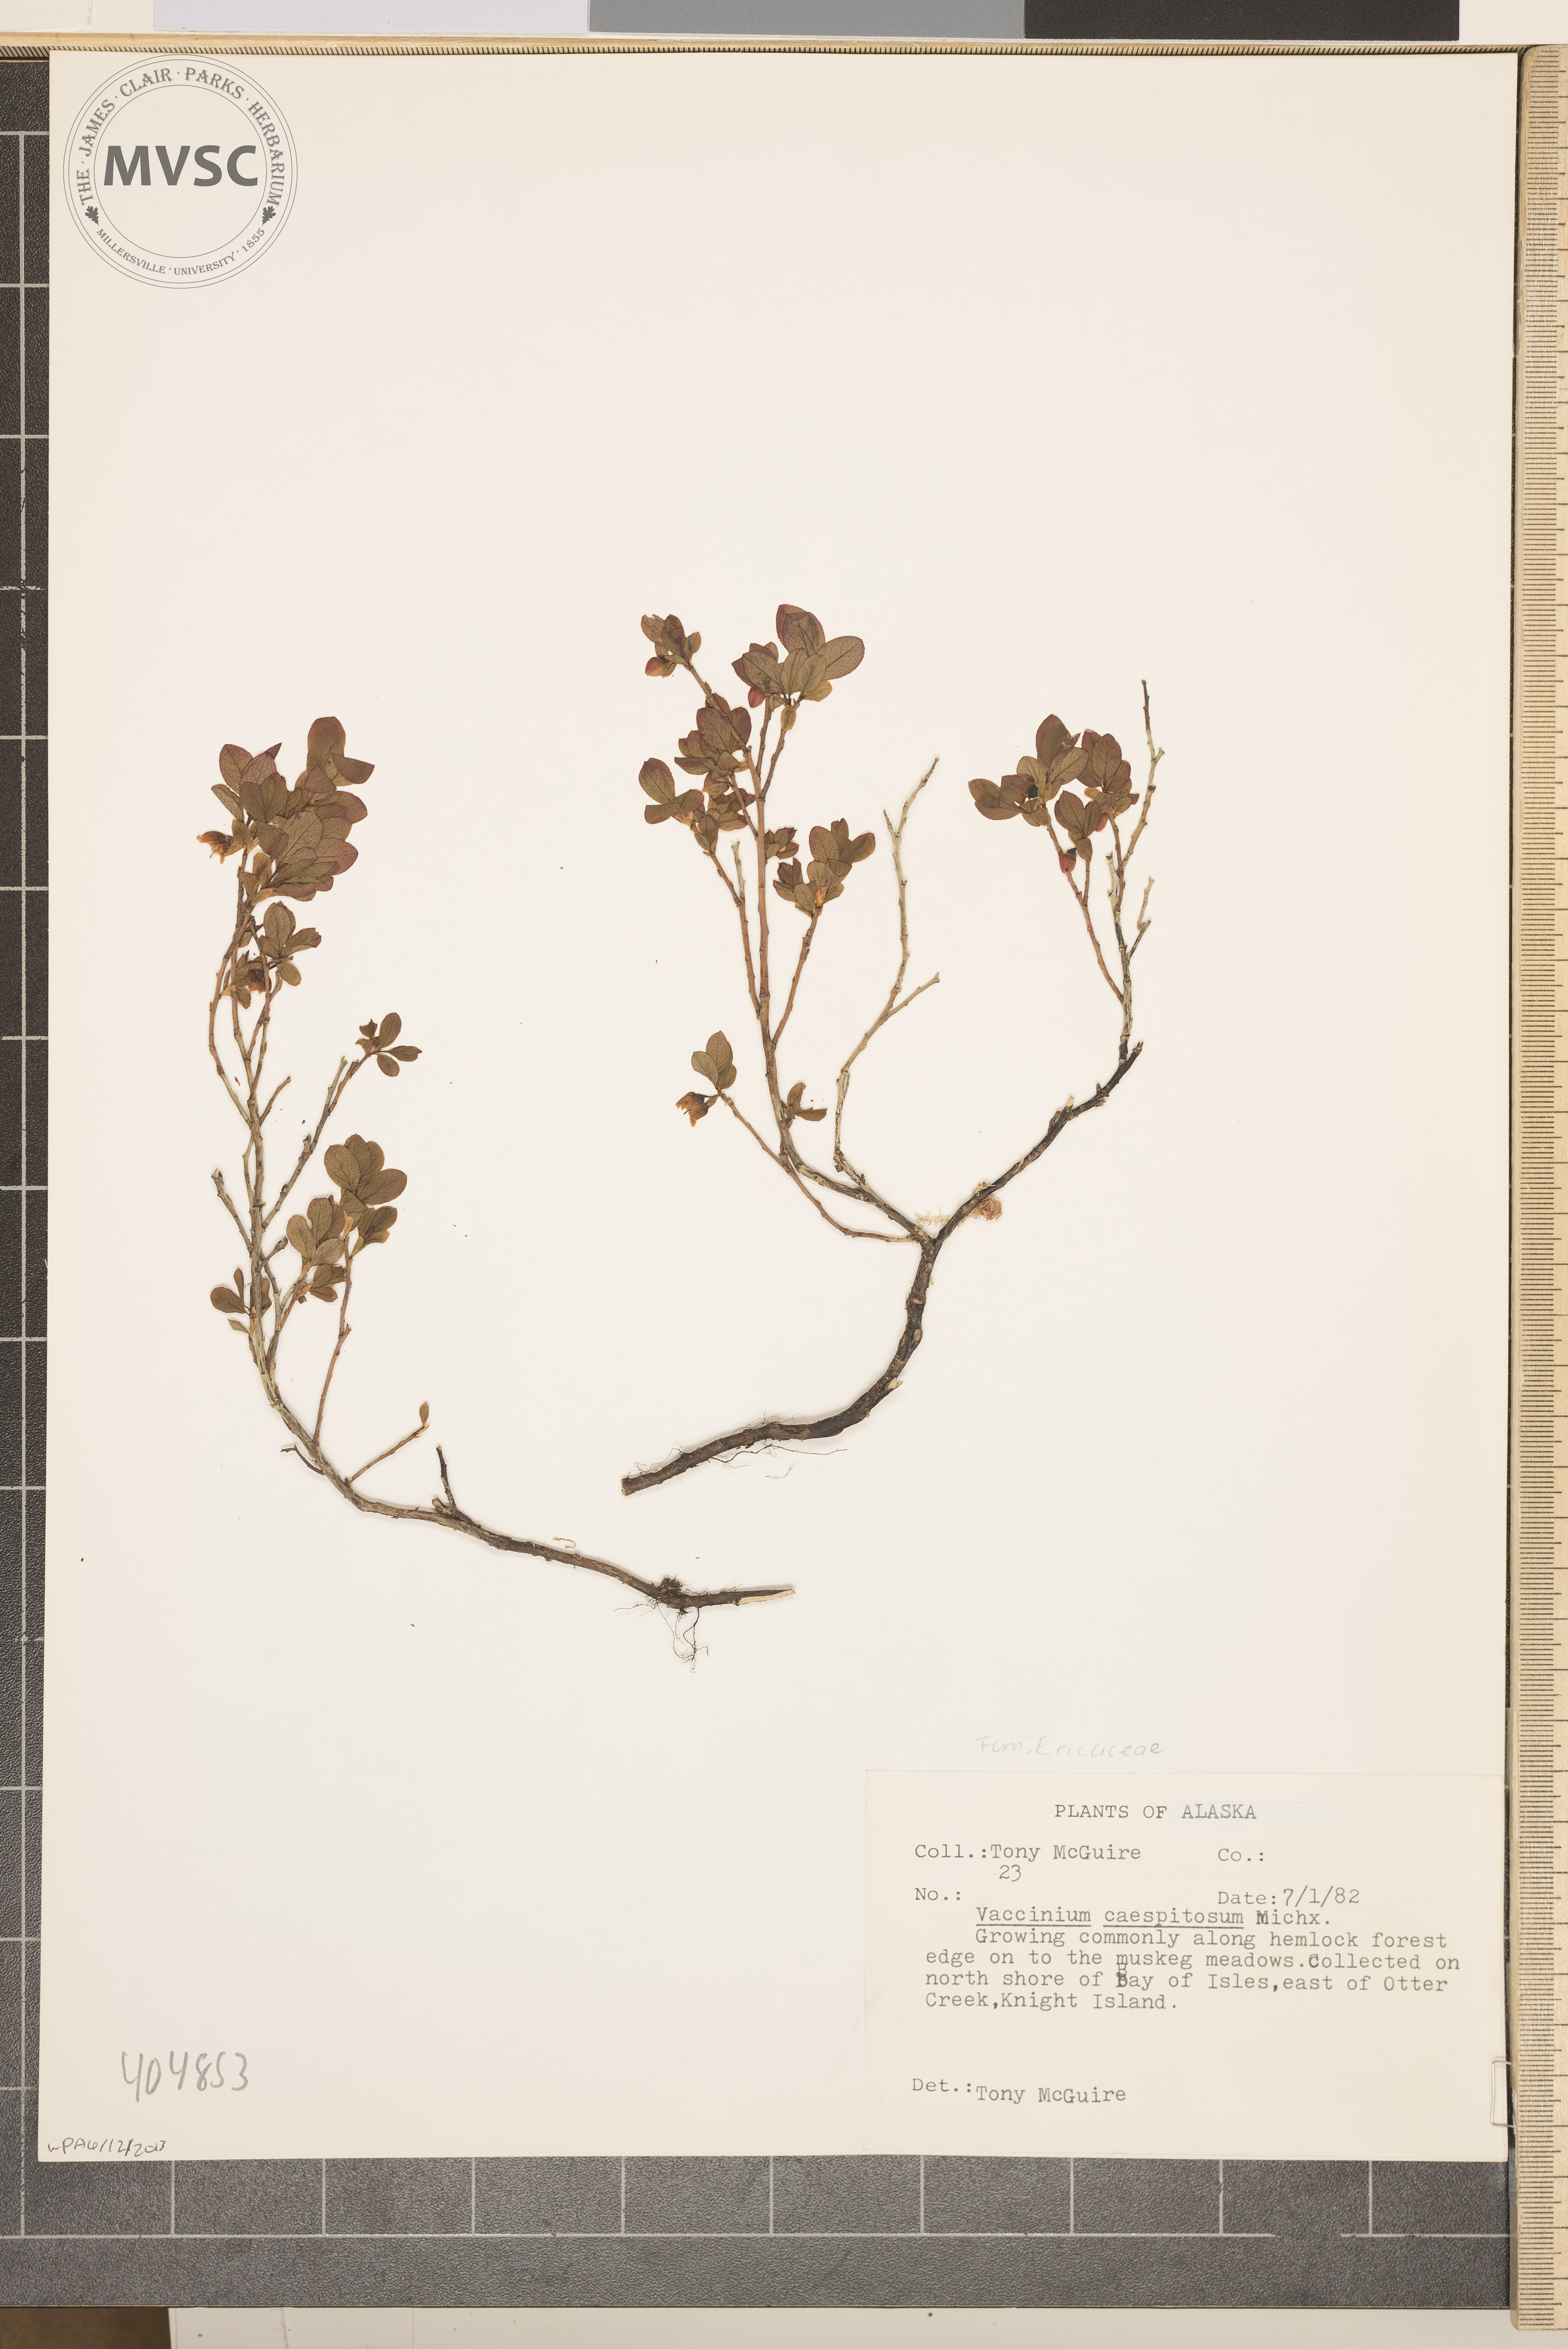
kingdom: Plantae
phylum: Tracheophyta
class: Magnoliopsida
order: Ericales
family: Ericaceae
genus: Vaccinium
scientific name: Vaccinium cespitosum
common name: Dwarf bilberry
